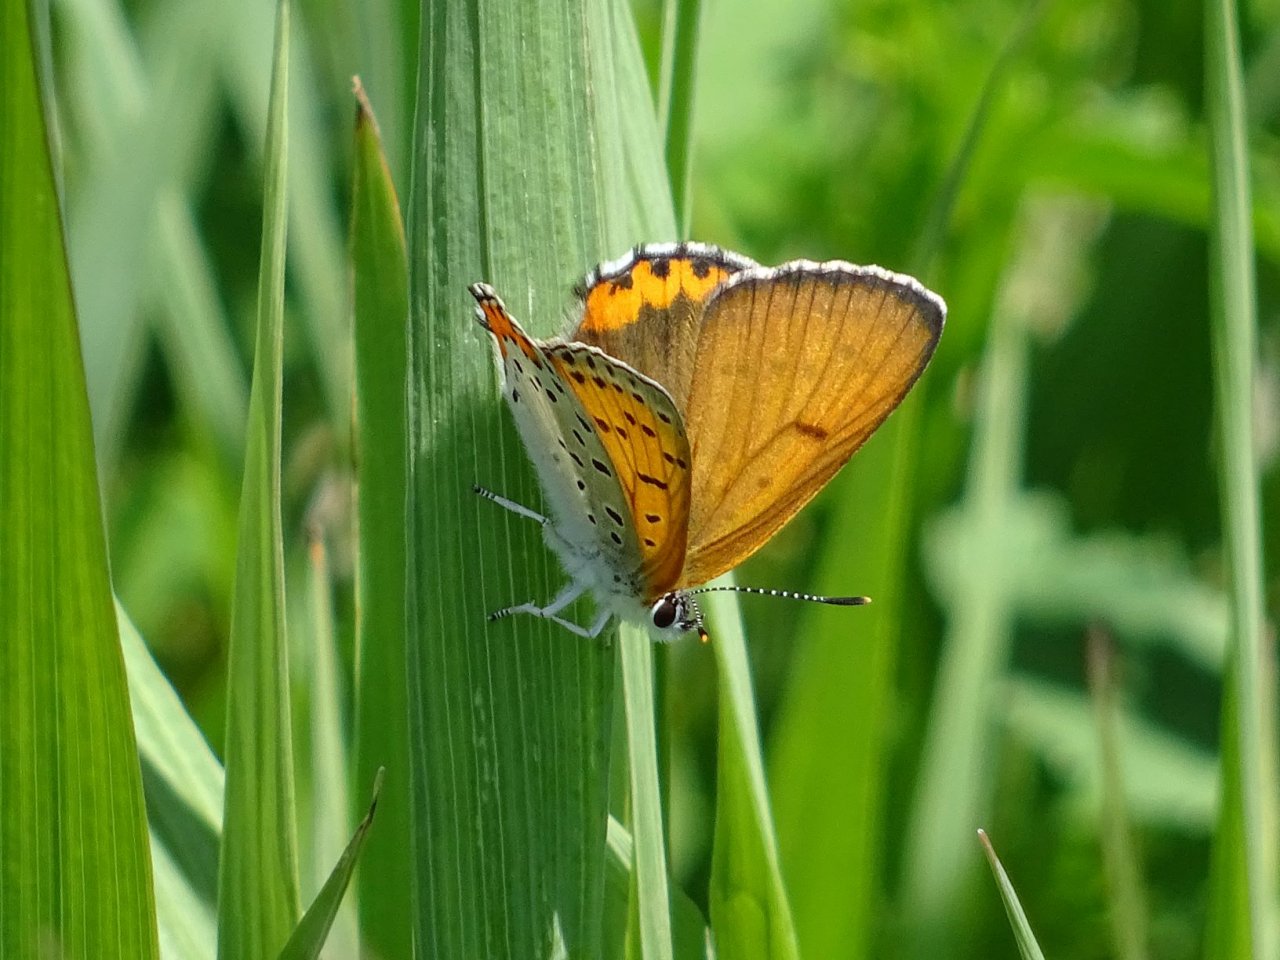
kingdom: Animalia
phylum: Arthropoda
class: Insecta
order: Lepidoptera
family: Sesiidae
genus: Sesia
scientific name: Sesia Lycaena hyllus
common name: Bronze Copper
